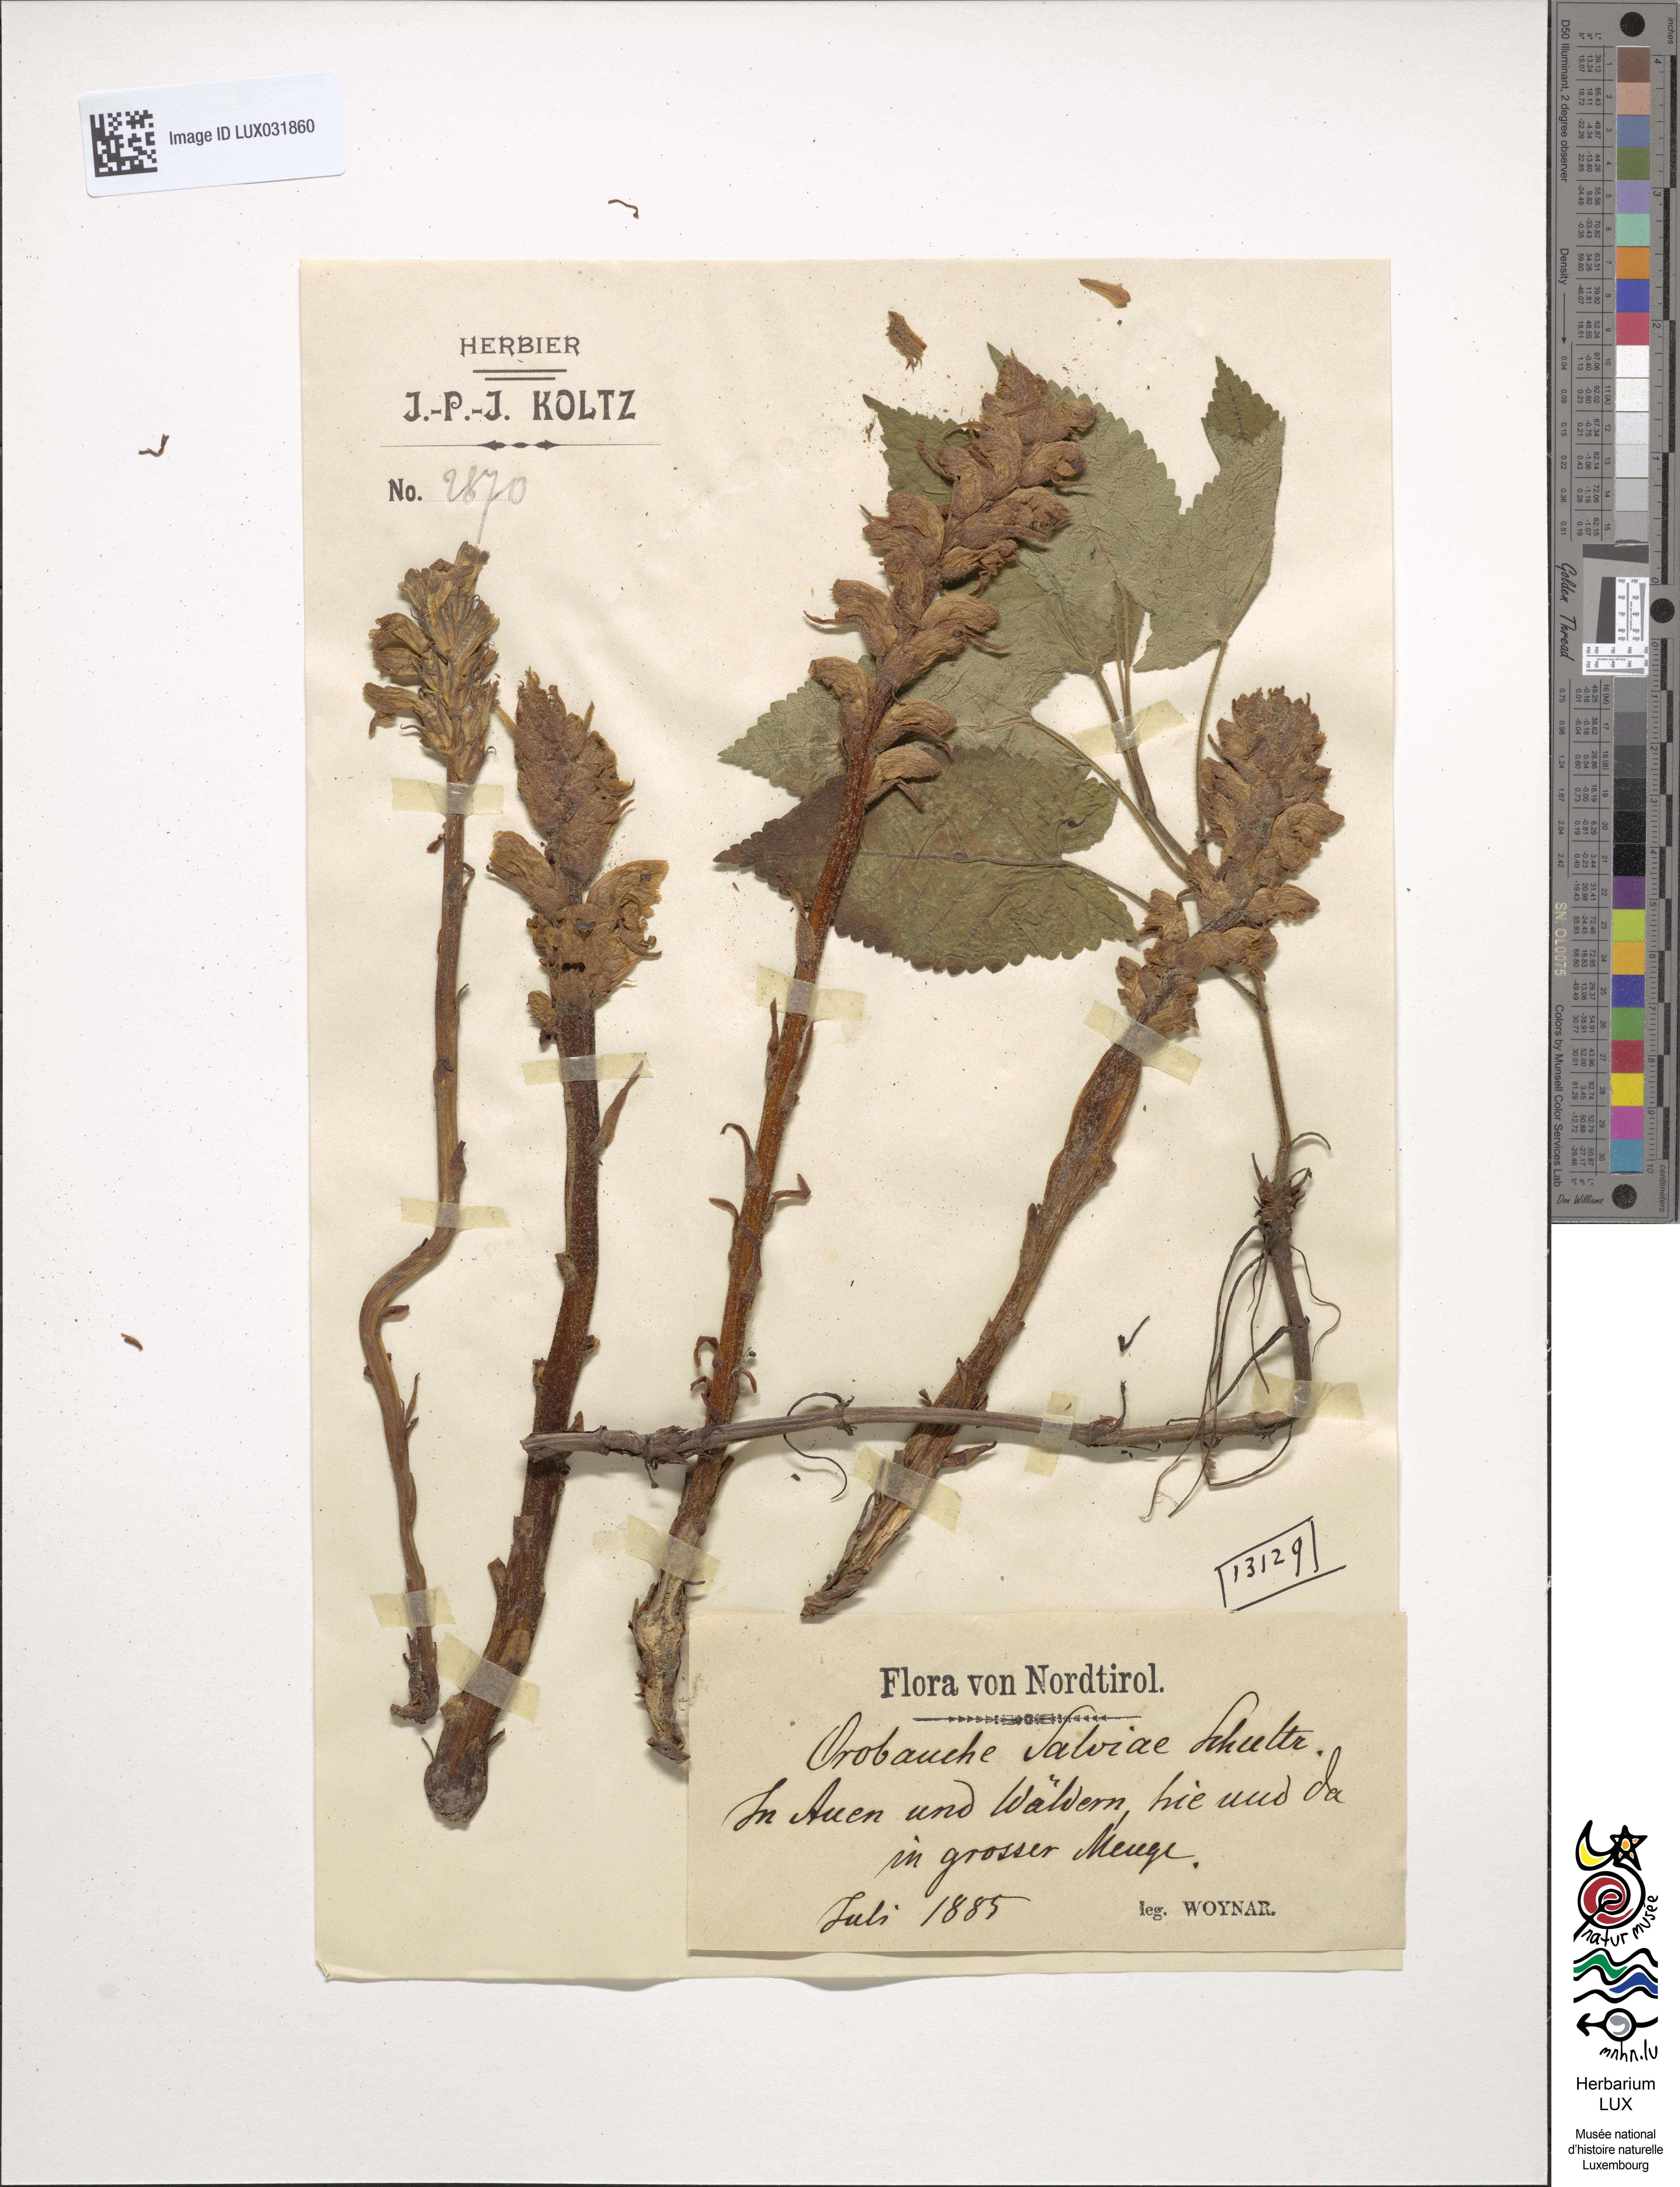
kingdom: Plantae
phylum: Tracheophyta
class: Magnoliopsida
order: Lamiales
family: Orobanchaceae
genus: Orobanche
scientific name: Orobanche salviae
